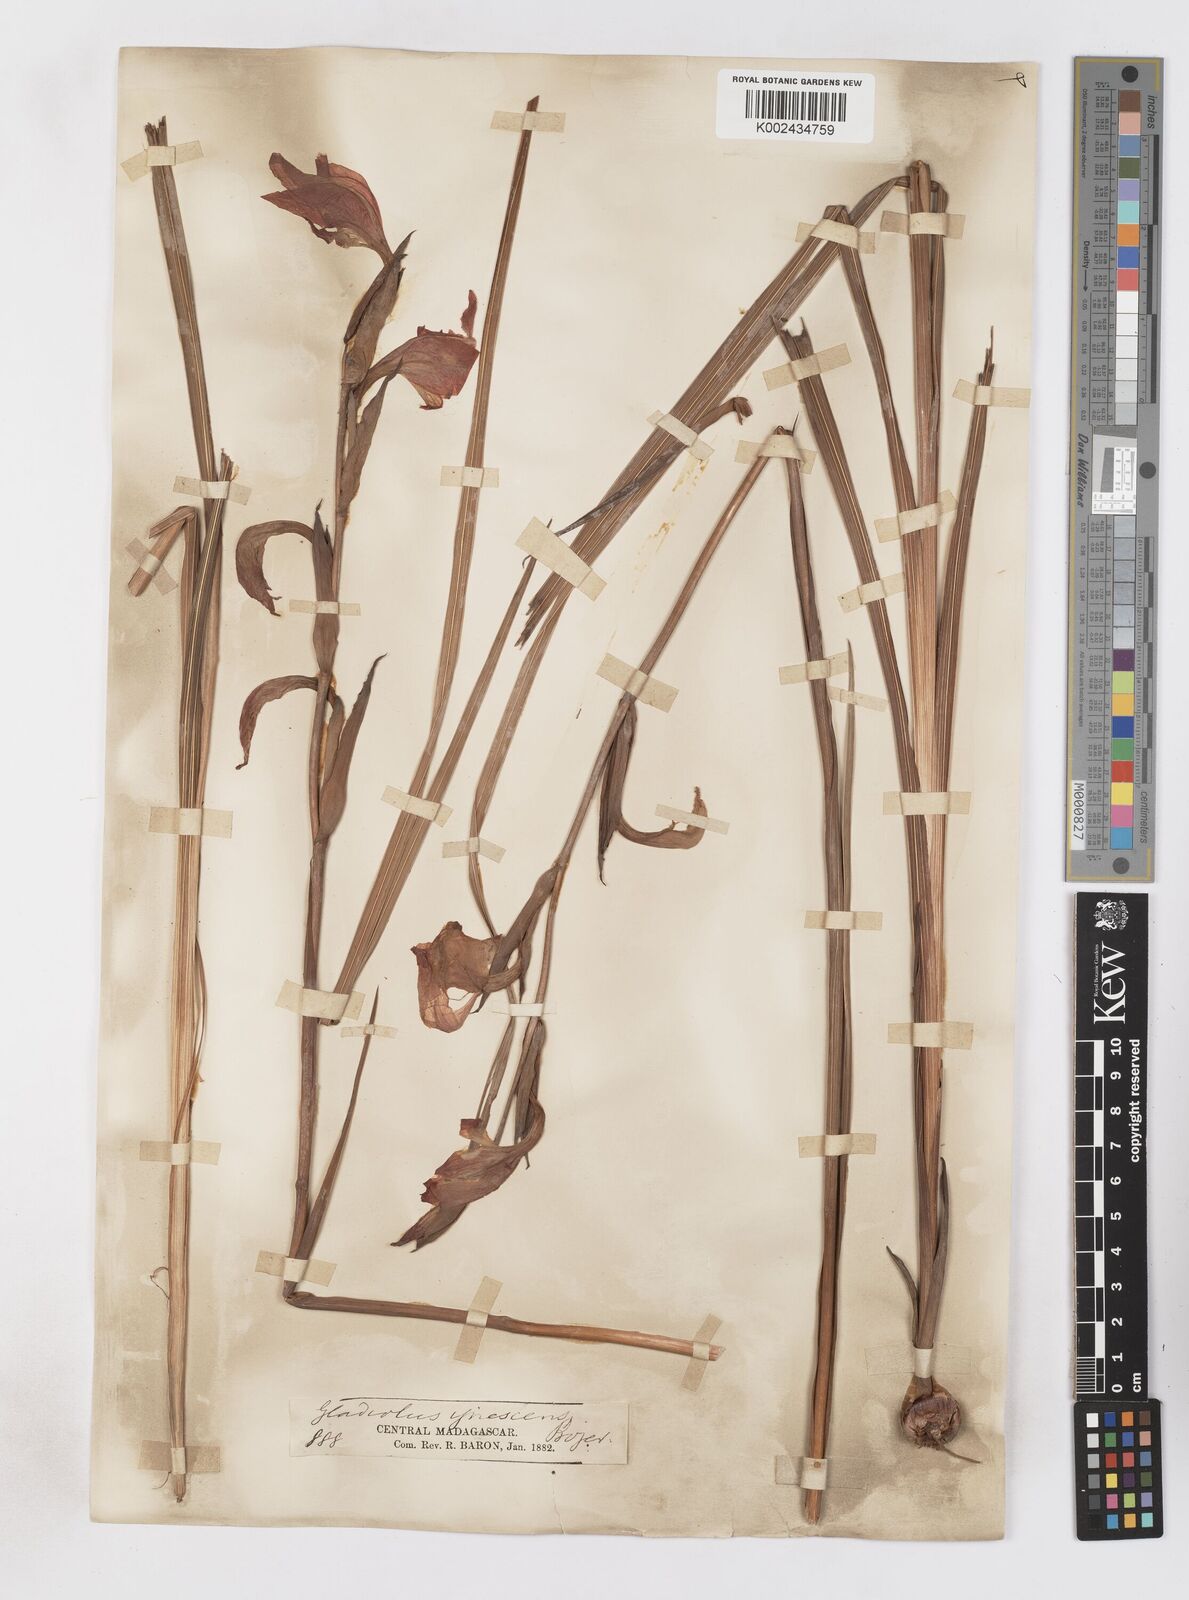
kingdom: Plantae
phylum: Tracheophyta
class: Liliopsida
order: Asparagales
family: Iridaceae
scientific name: Iridaceae
